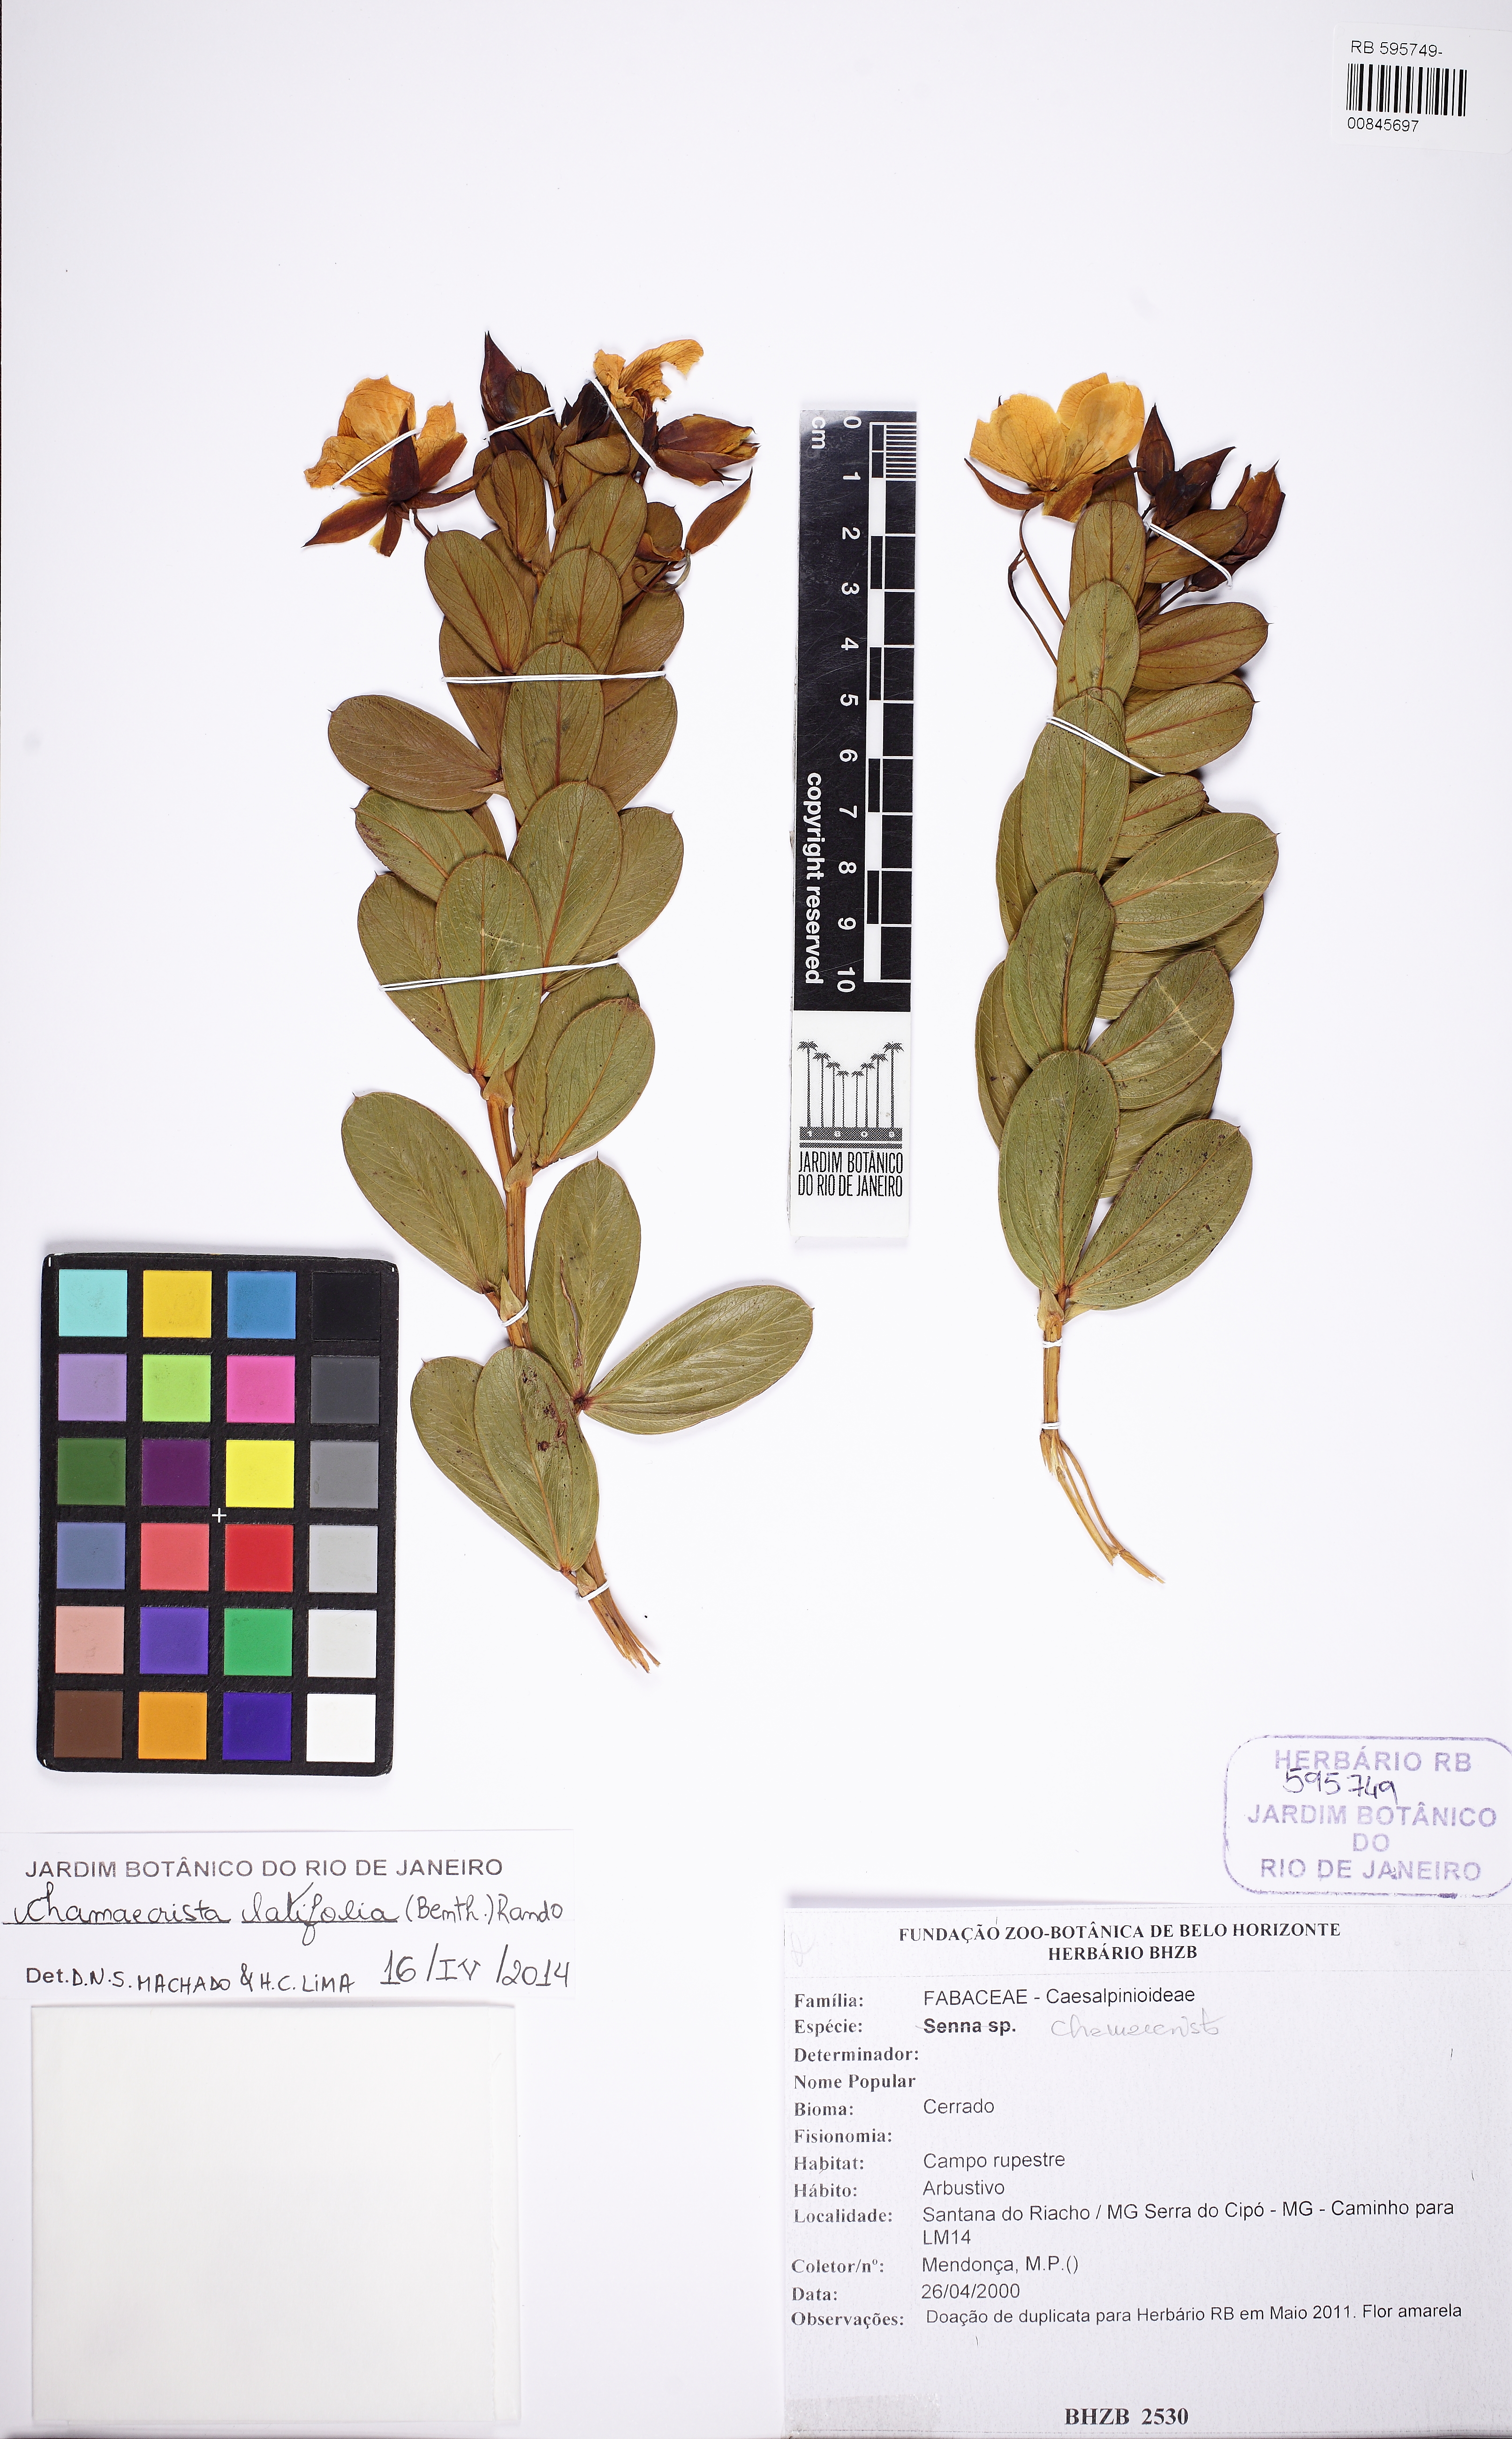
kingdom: Plantae
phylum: Tracheophyta
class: Magnoliopsida
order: Fabales
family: Fabaceae
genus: Chamaecrista
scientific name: Chamaecrista latifolia
